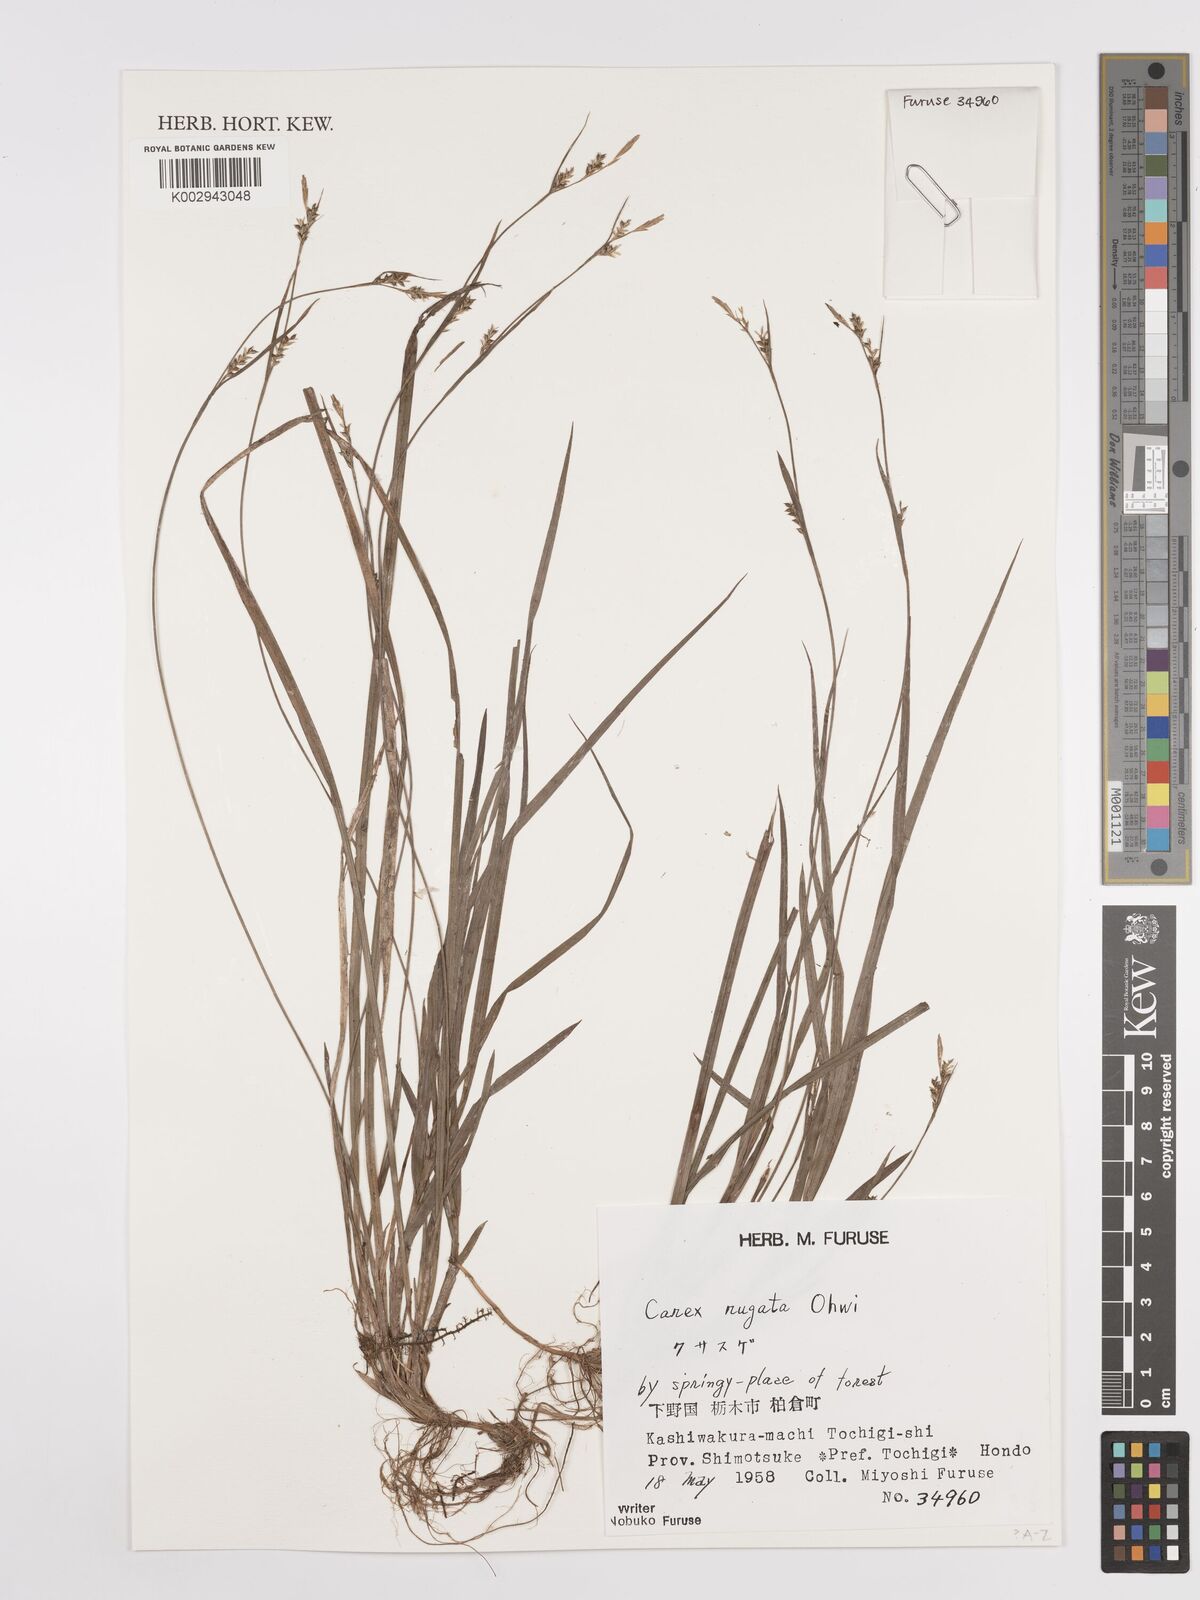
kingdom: Plantae
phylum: Tracheophyta
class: Liliopsida
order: Poales
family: Cyperaceae
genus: Carex
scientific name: Carex rugata
